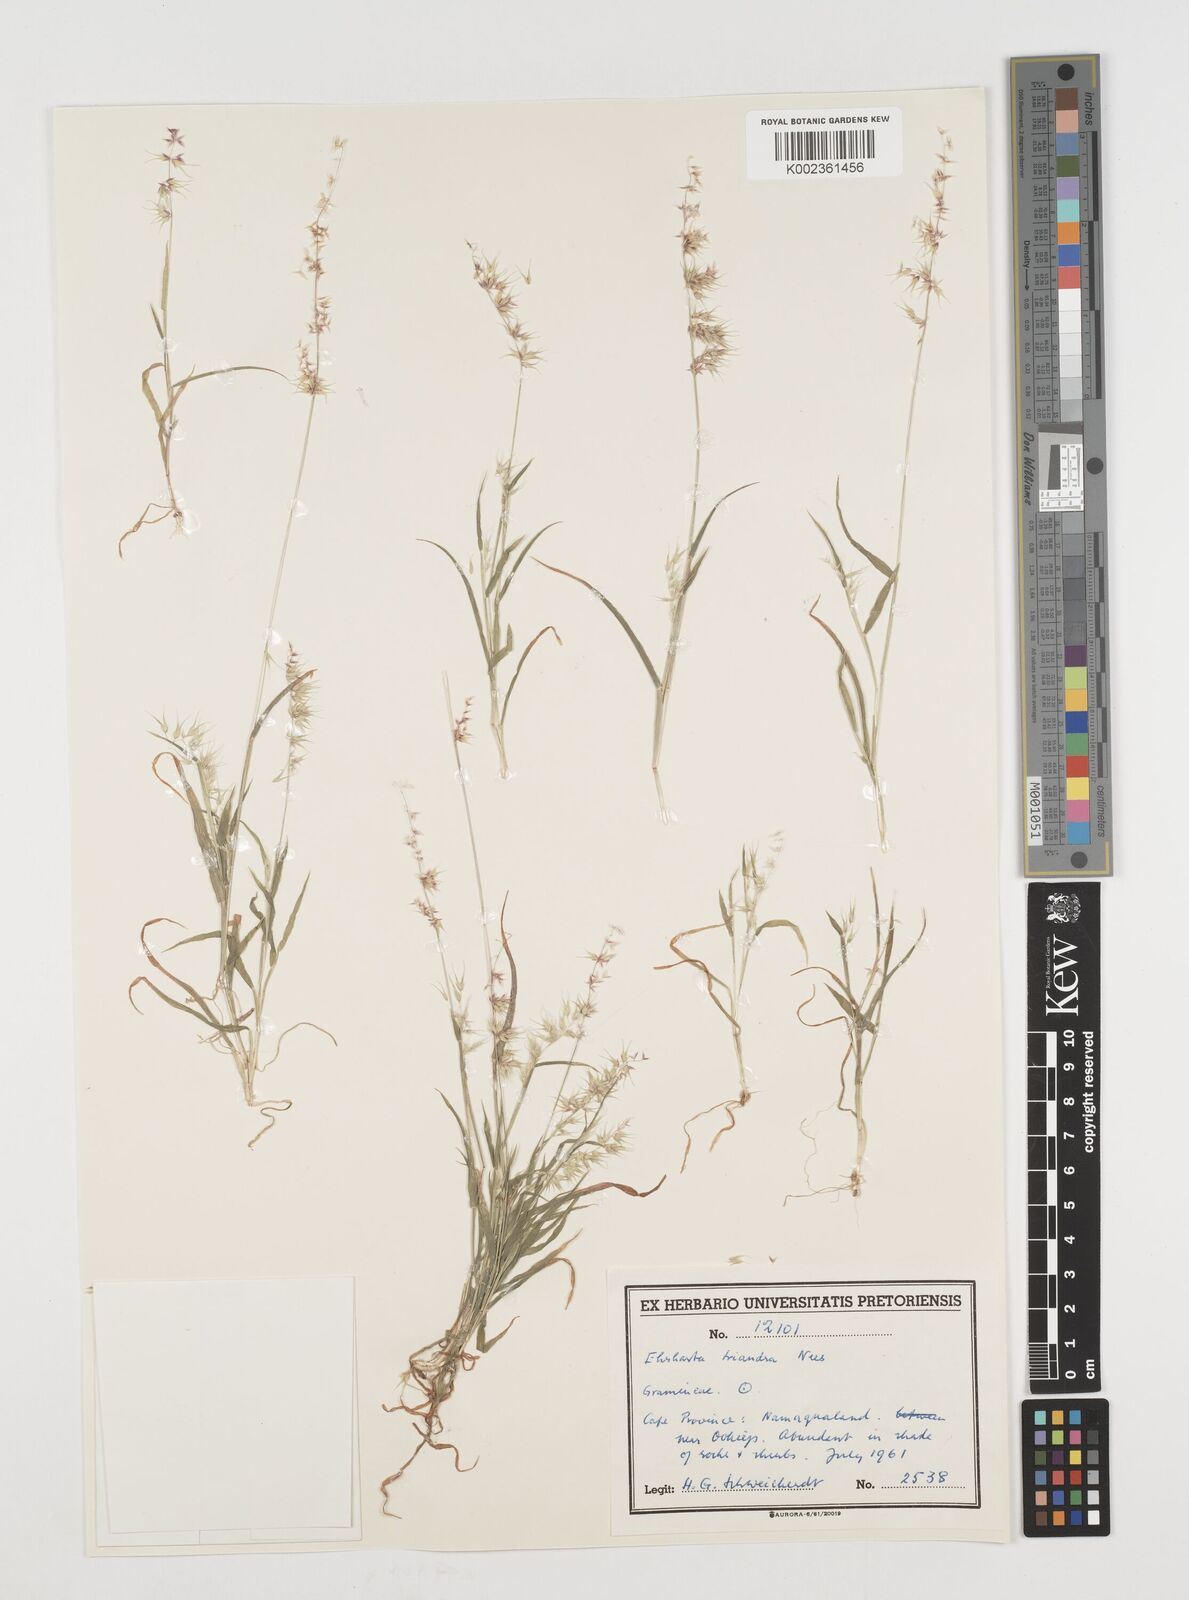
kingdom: Plantae
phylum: Tracheophyta
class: Liliopsida
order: Poales
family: Poaceae
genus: Ehrharta
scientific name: Ehrharta triandra
